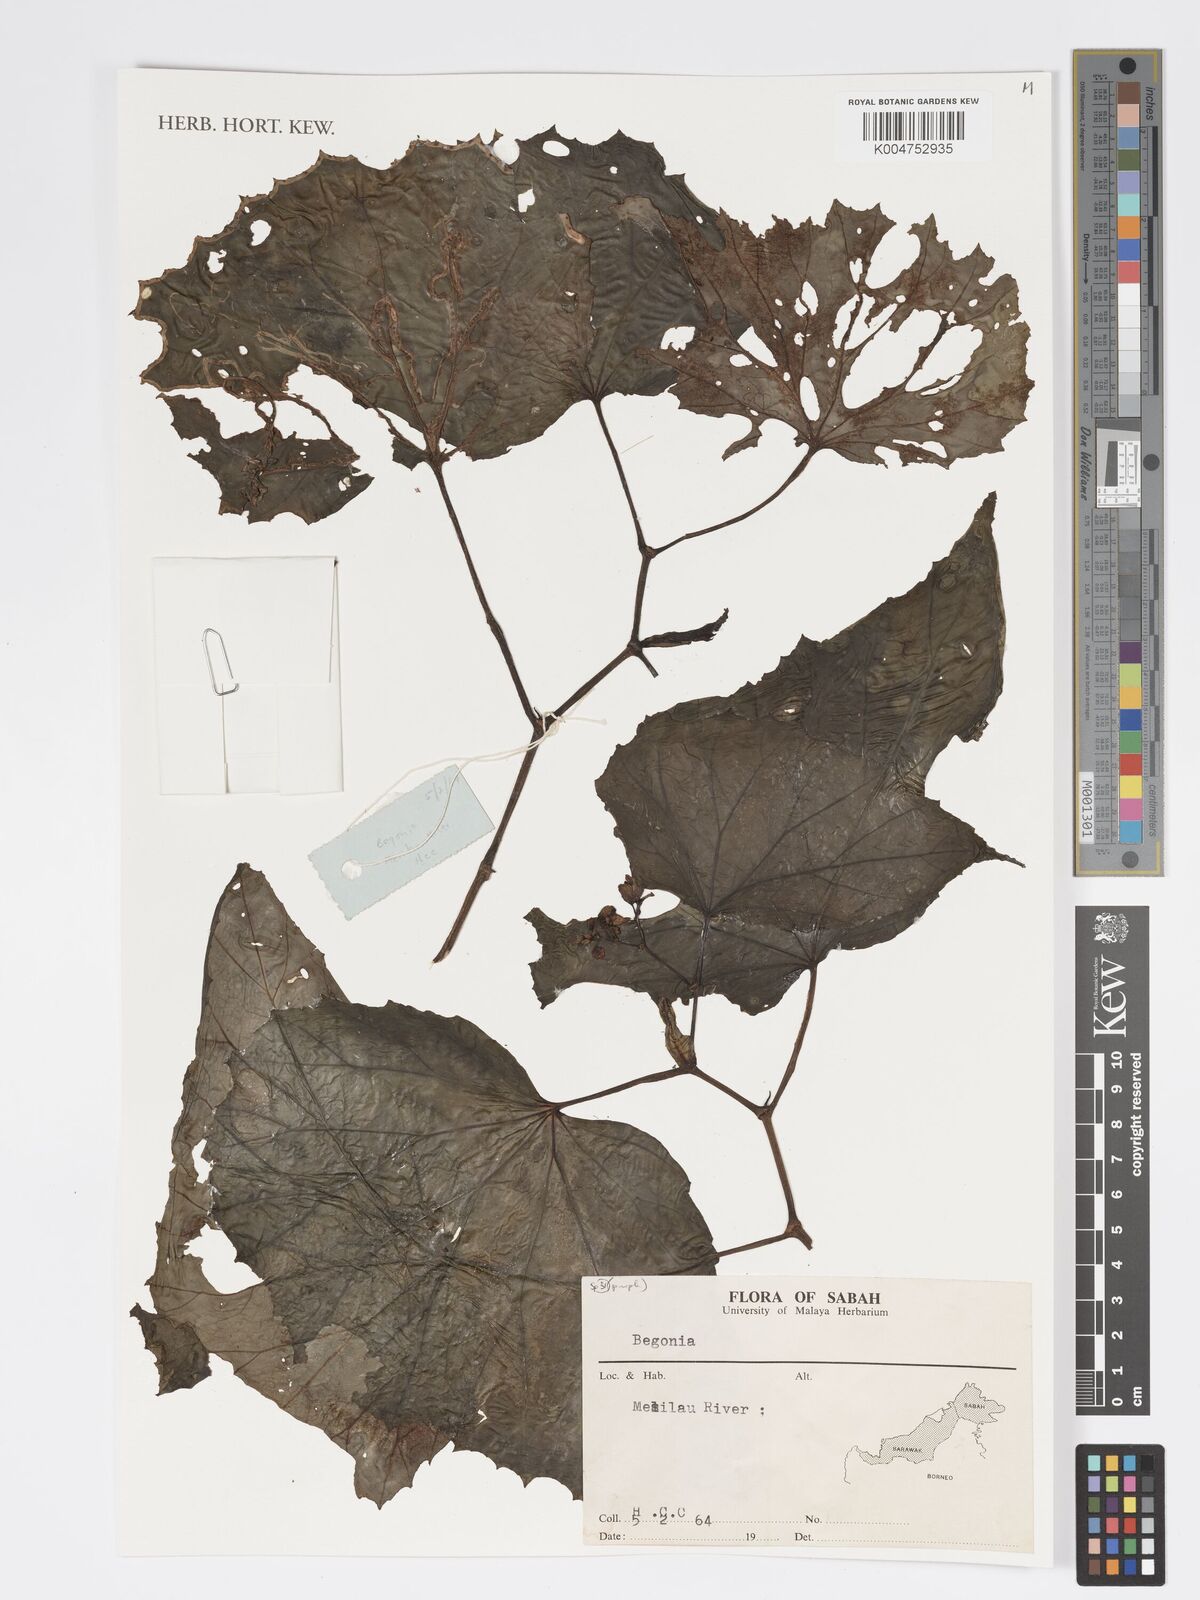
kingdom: Plantae
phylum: Tracheophyta
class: Magnoliopsida
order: Cucurbitales
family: Begoniaceae
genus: Begonia
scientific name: Begonia
